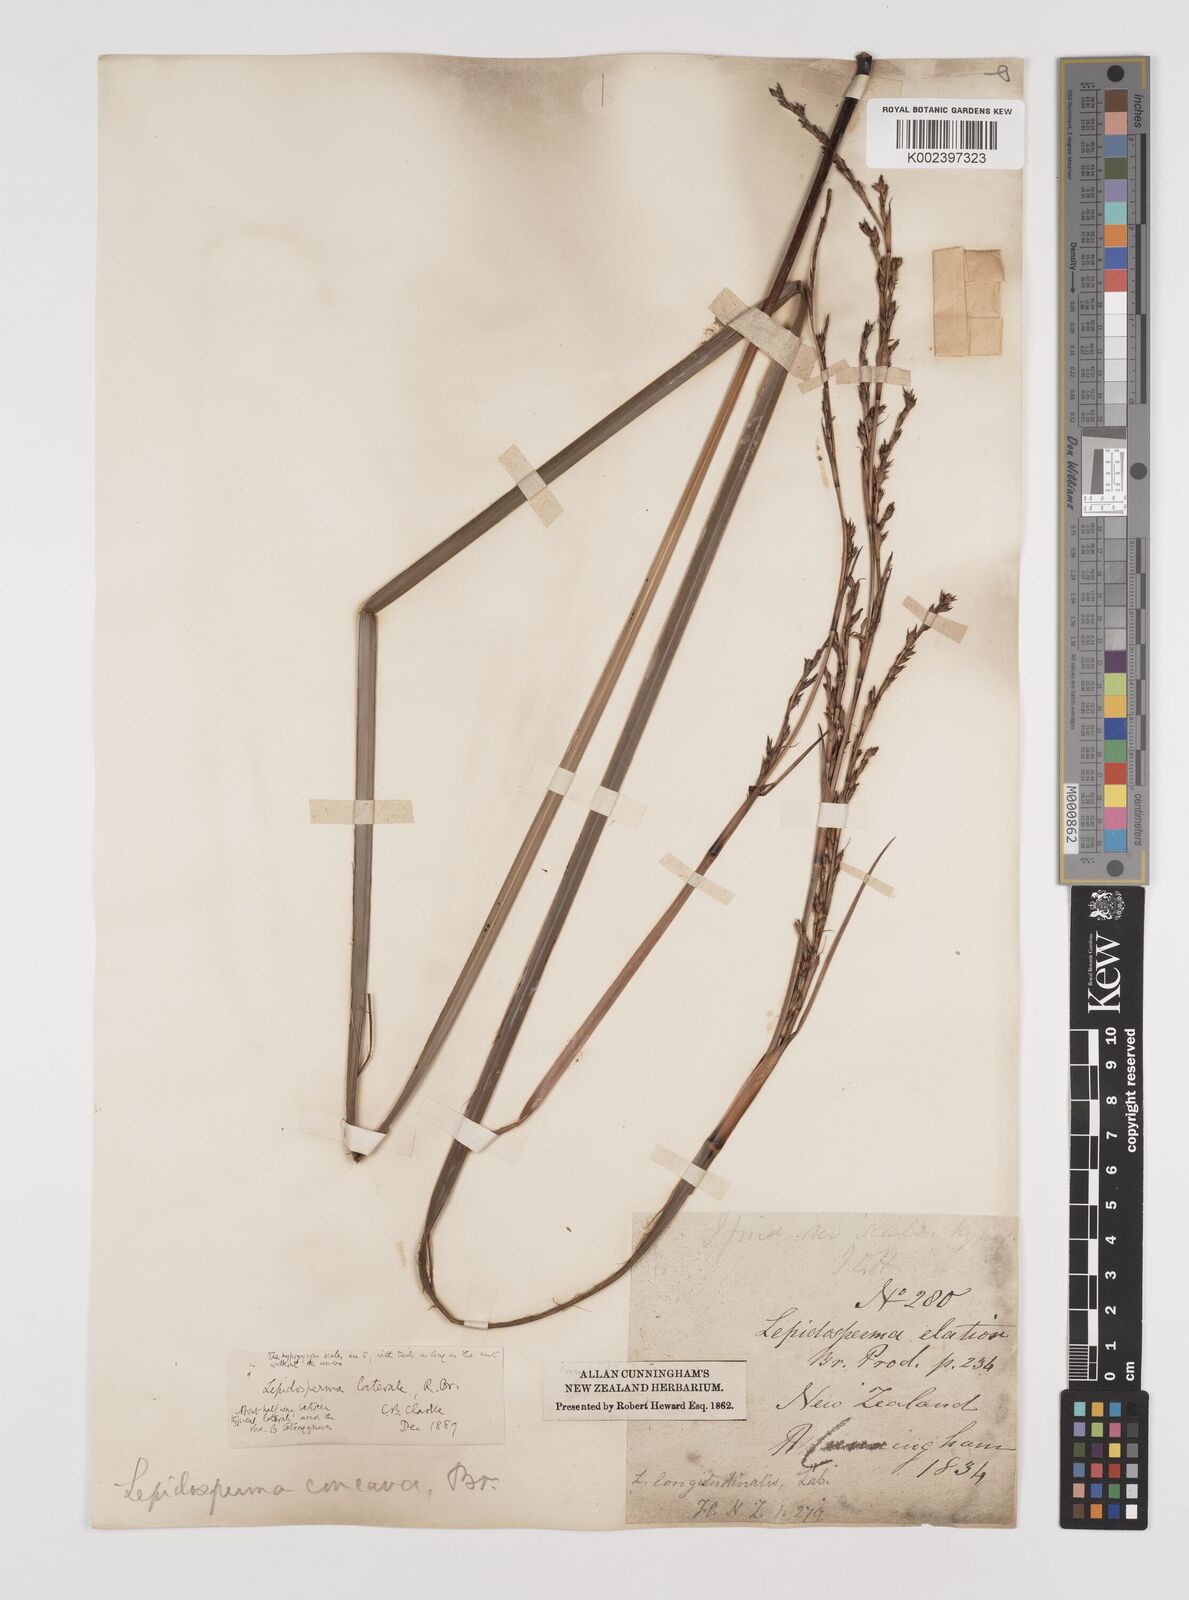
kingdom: Plantae
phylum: Tracheophyta
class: Liliopsida
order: Poales
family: Cyperaceae
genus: Lepidosperma
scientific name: Lepidosperma laterale
